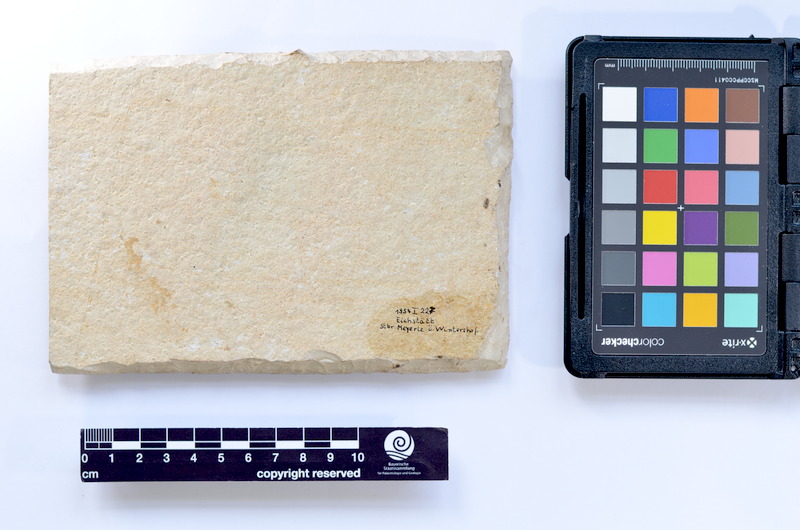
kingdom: Animalia
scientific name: Animalia
